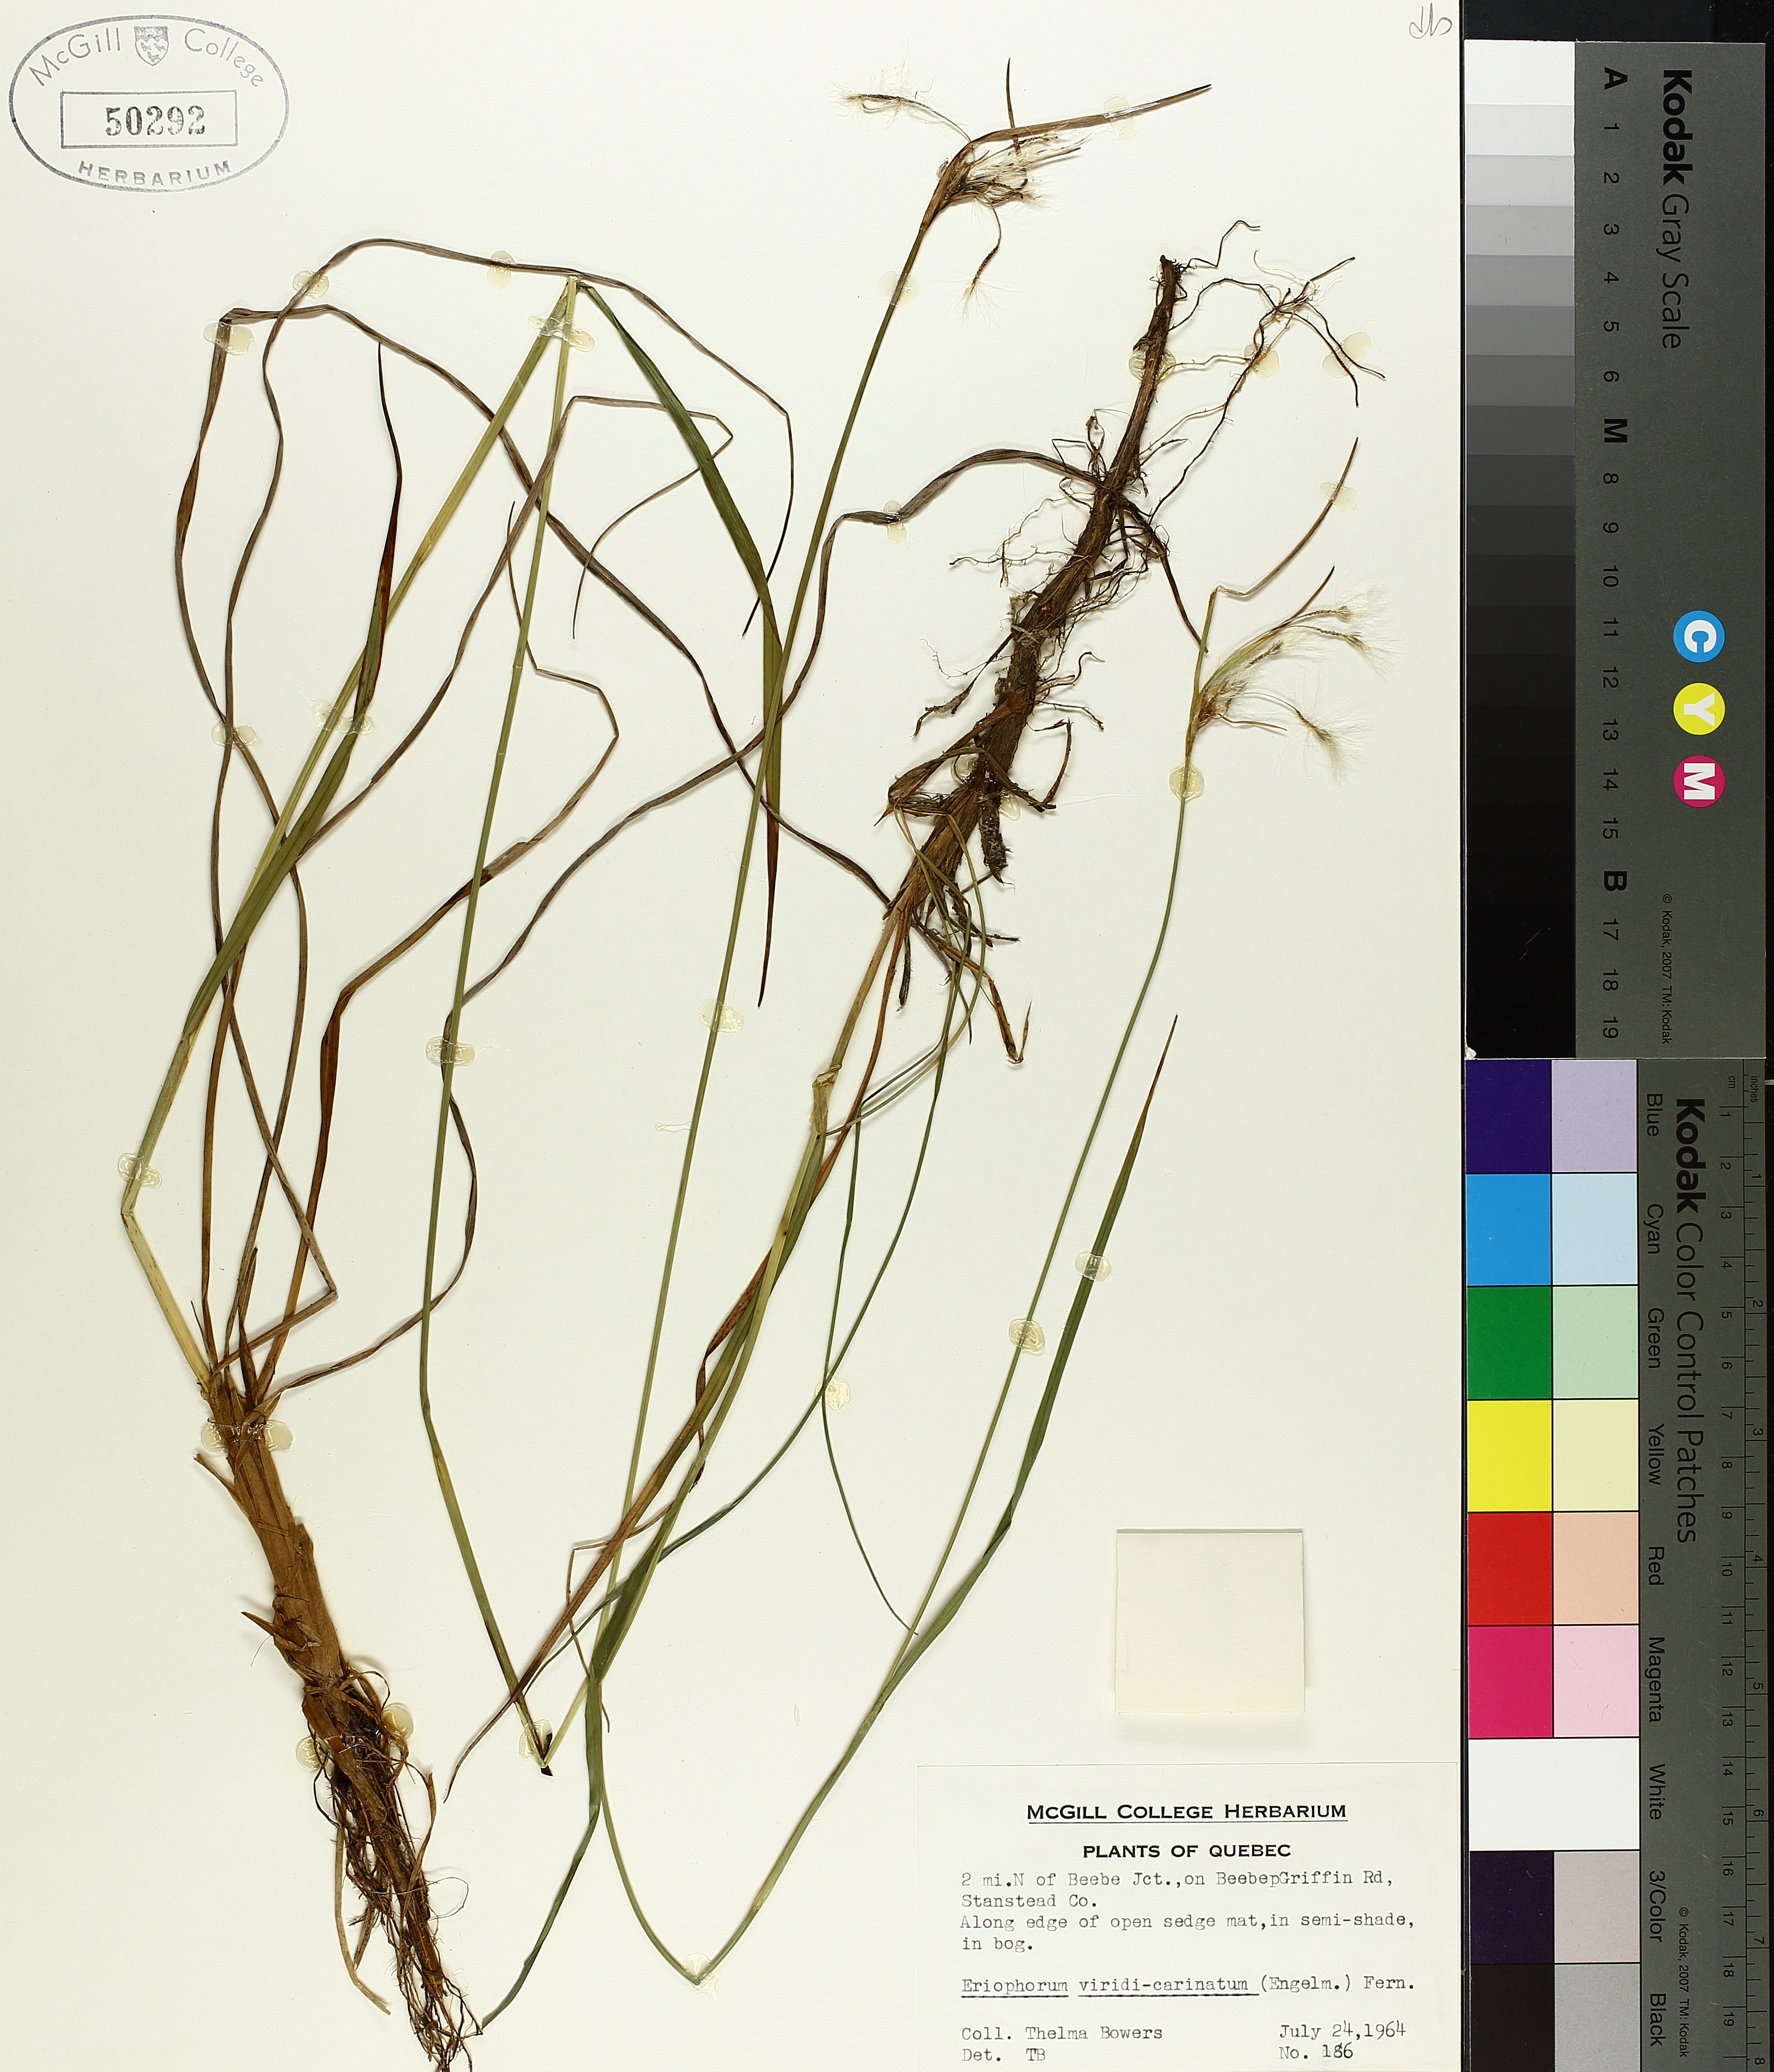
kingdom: Plantae
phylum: Tracheophyta
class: Liliopsida
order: Poales
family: Cyperaceae
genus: Eriophorum
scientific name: Eriophorum viridicarinatum
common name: Green-keeled cottongrass
